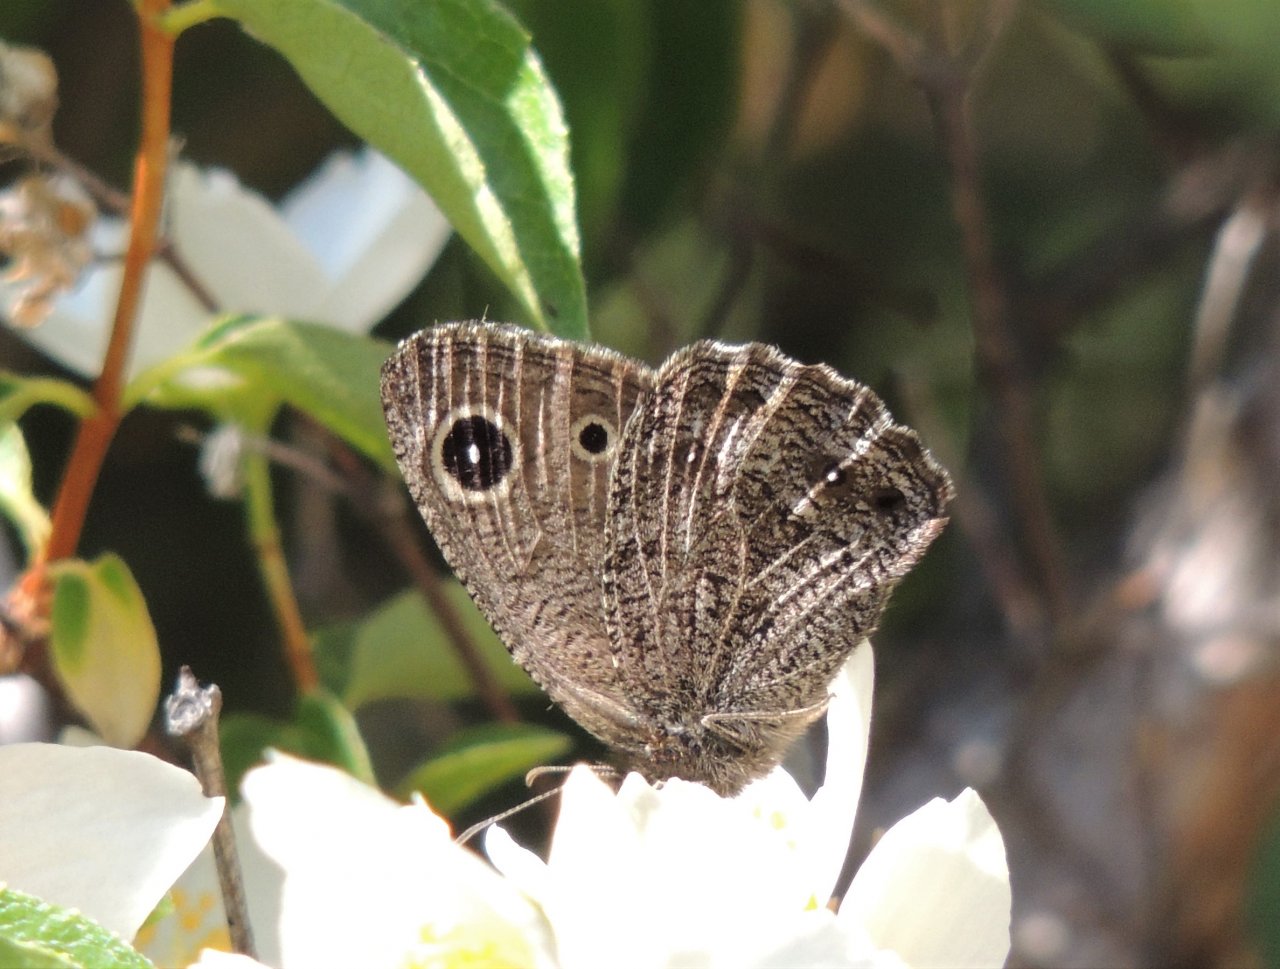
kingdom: Animalia
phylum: Arthropoda
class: Insecta
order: Lepidoptera
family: Nymphalidae
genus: Cercyonis
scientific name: Cercyonis oetus
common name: Small Wood-Nymph
